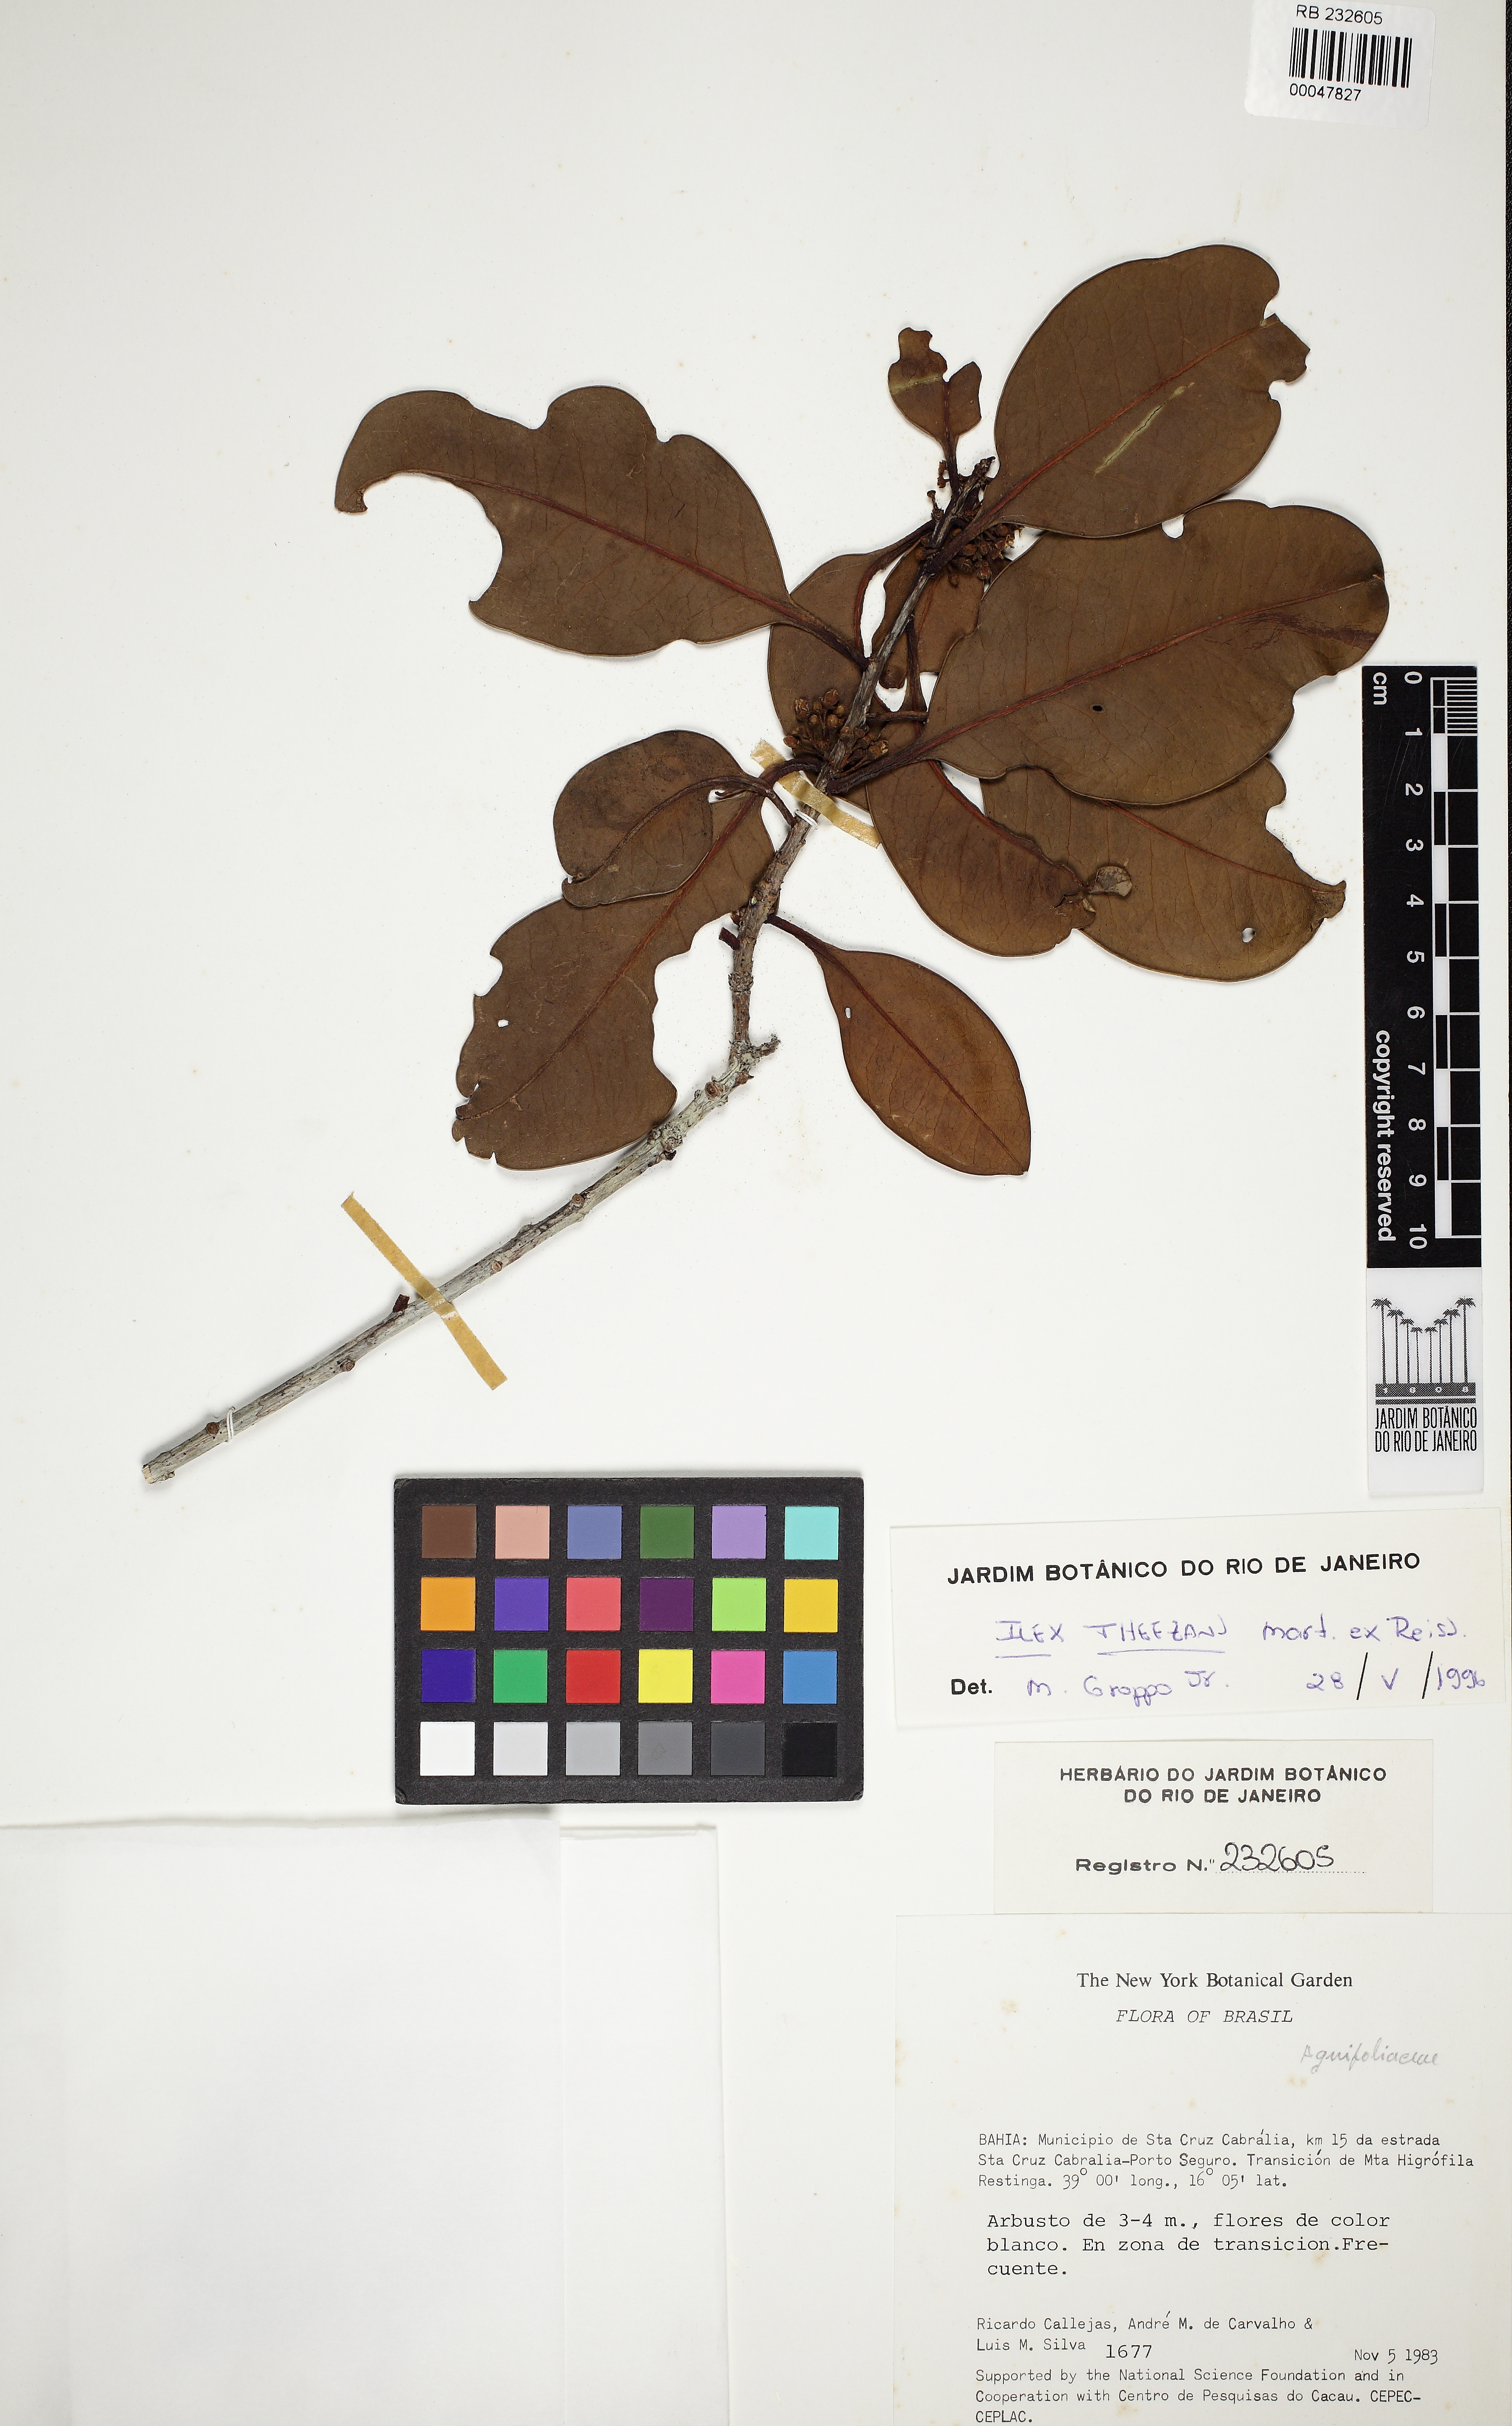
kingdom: Plantae
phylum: Tracheophyta
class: Magnoliopsida
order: Aquifoliales
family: Aquifoliaceae
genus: Ilex
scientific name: Ilex theezans
